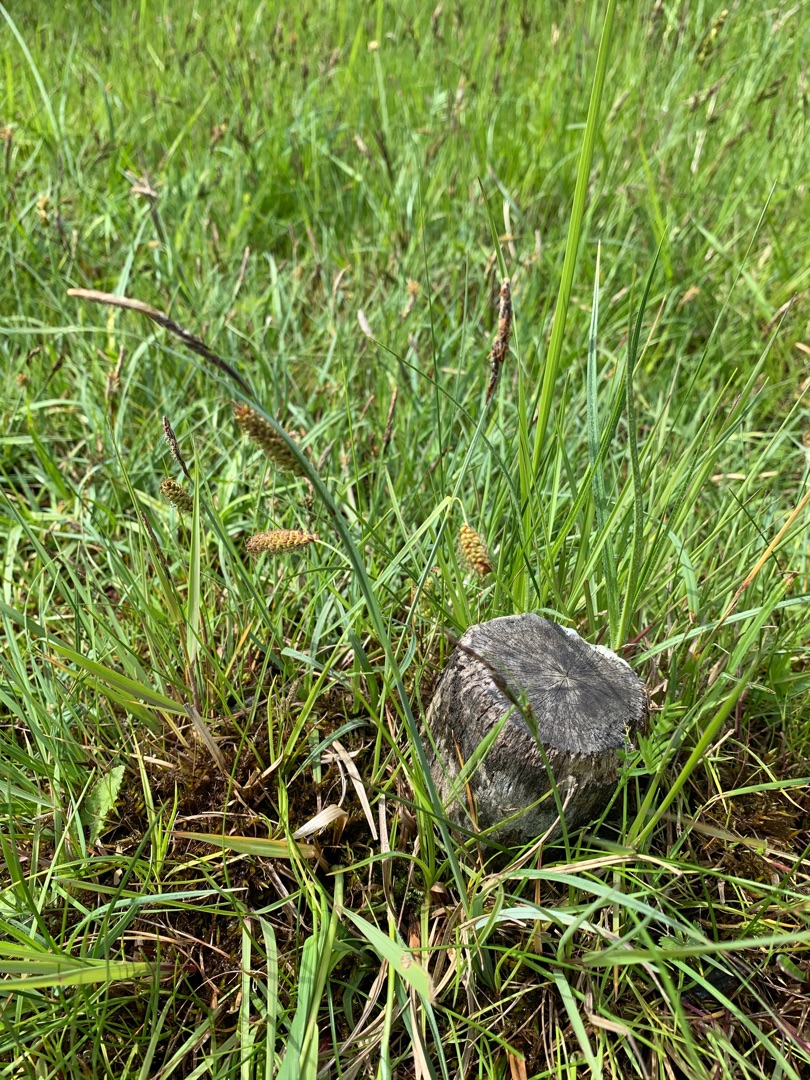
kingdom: Plantae
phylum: Tracheophyta
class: Liliopsida
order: Poales
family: Cyperaceae
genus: Carex
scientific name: Carex flacca
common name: Blågrøn star
